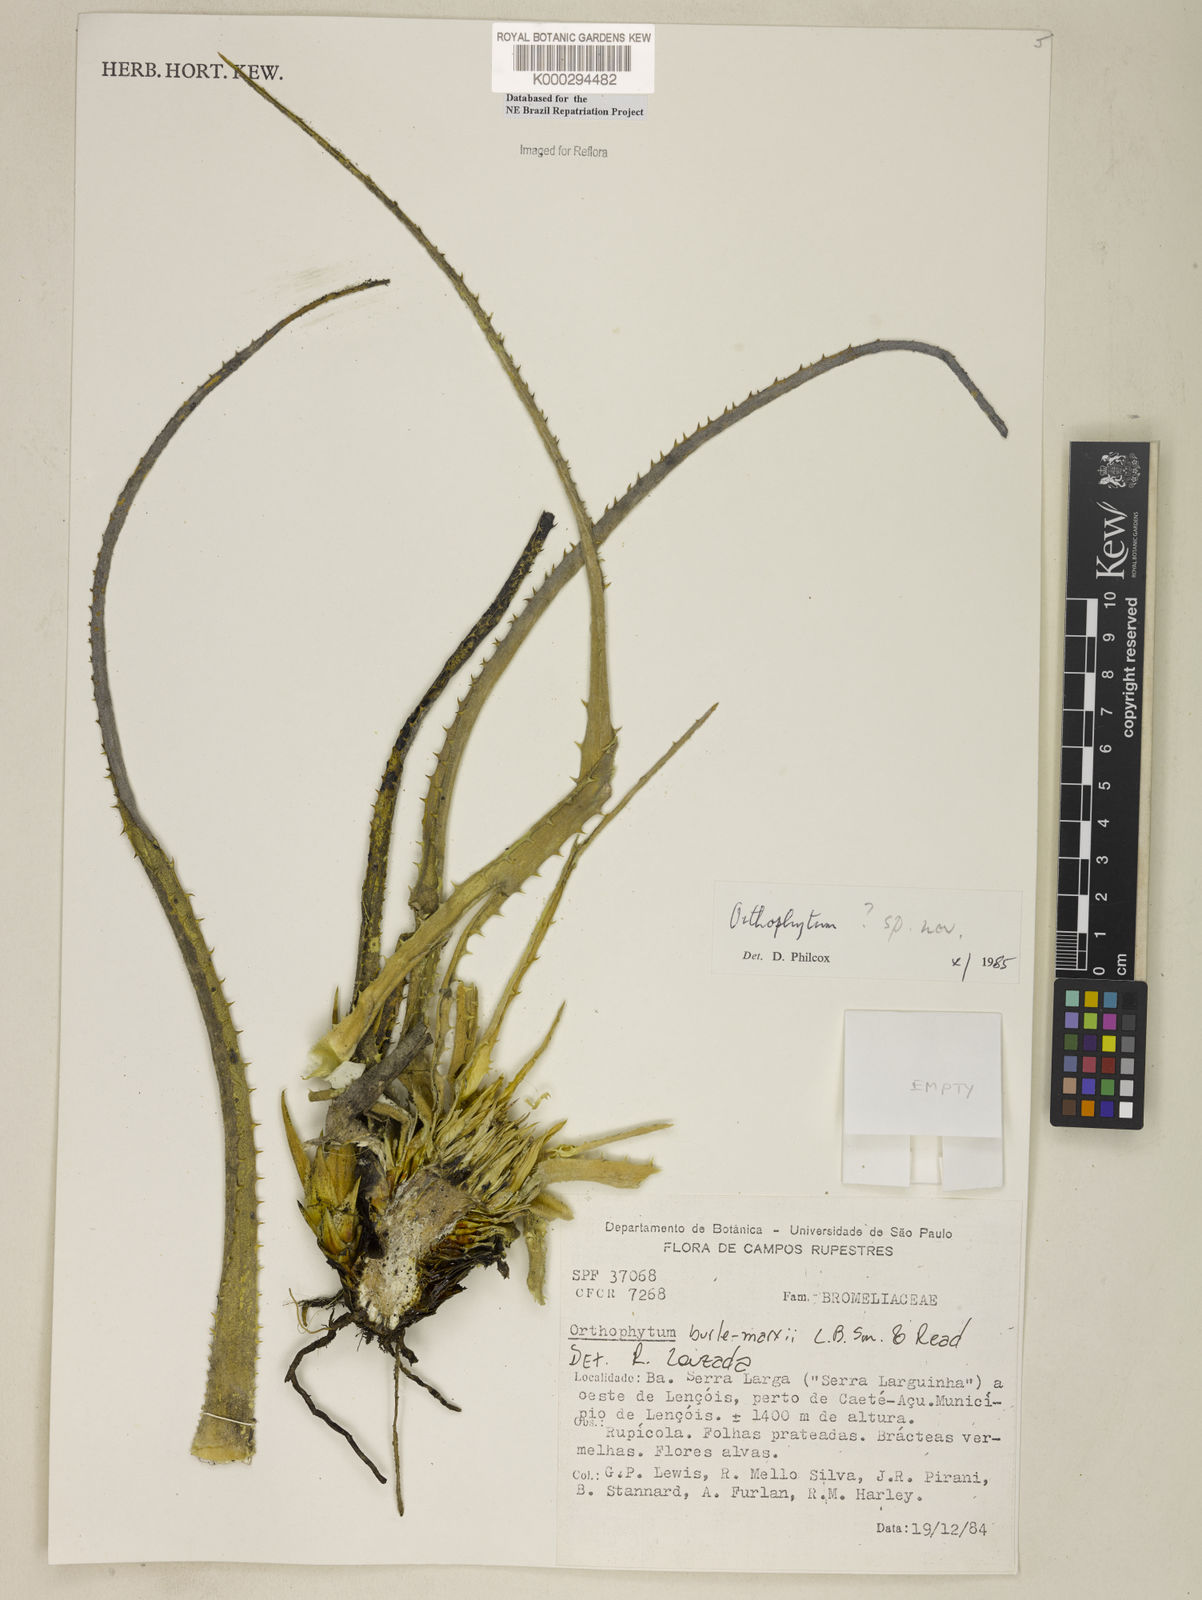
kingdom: Plantae
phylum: Tracheophyta
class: Liliopsida
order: Poales
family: Bromeliaceae
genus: Orthophytum
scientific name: Orthophytum
